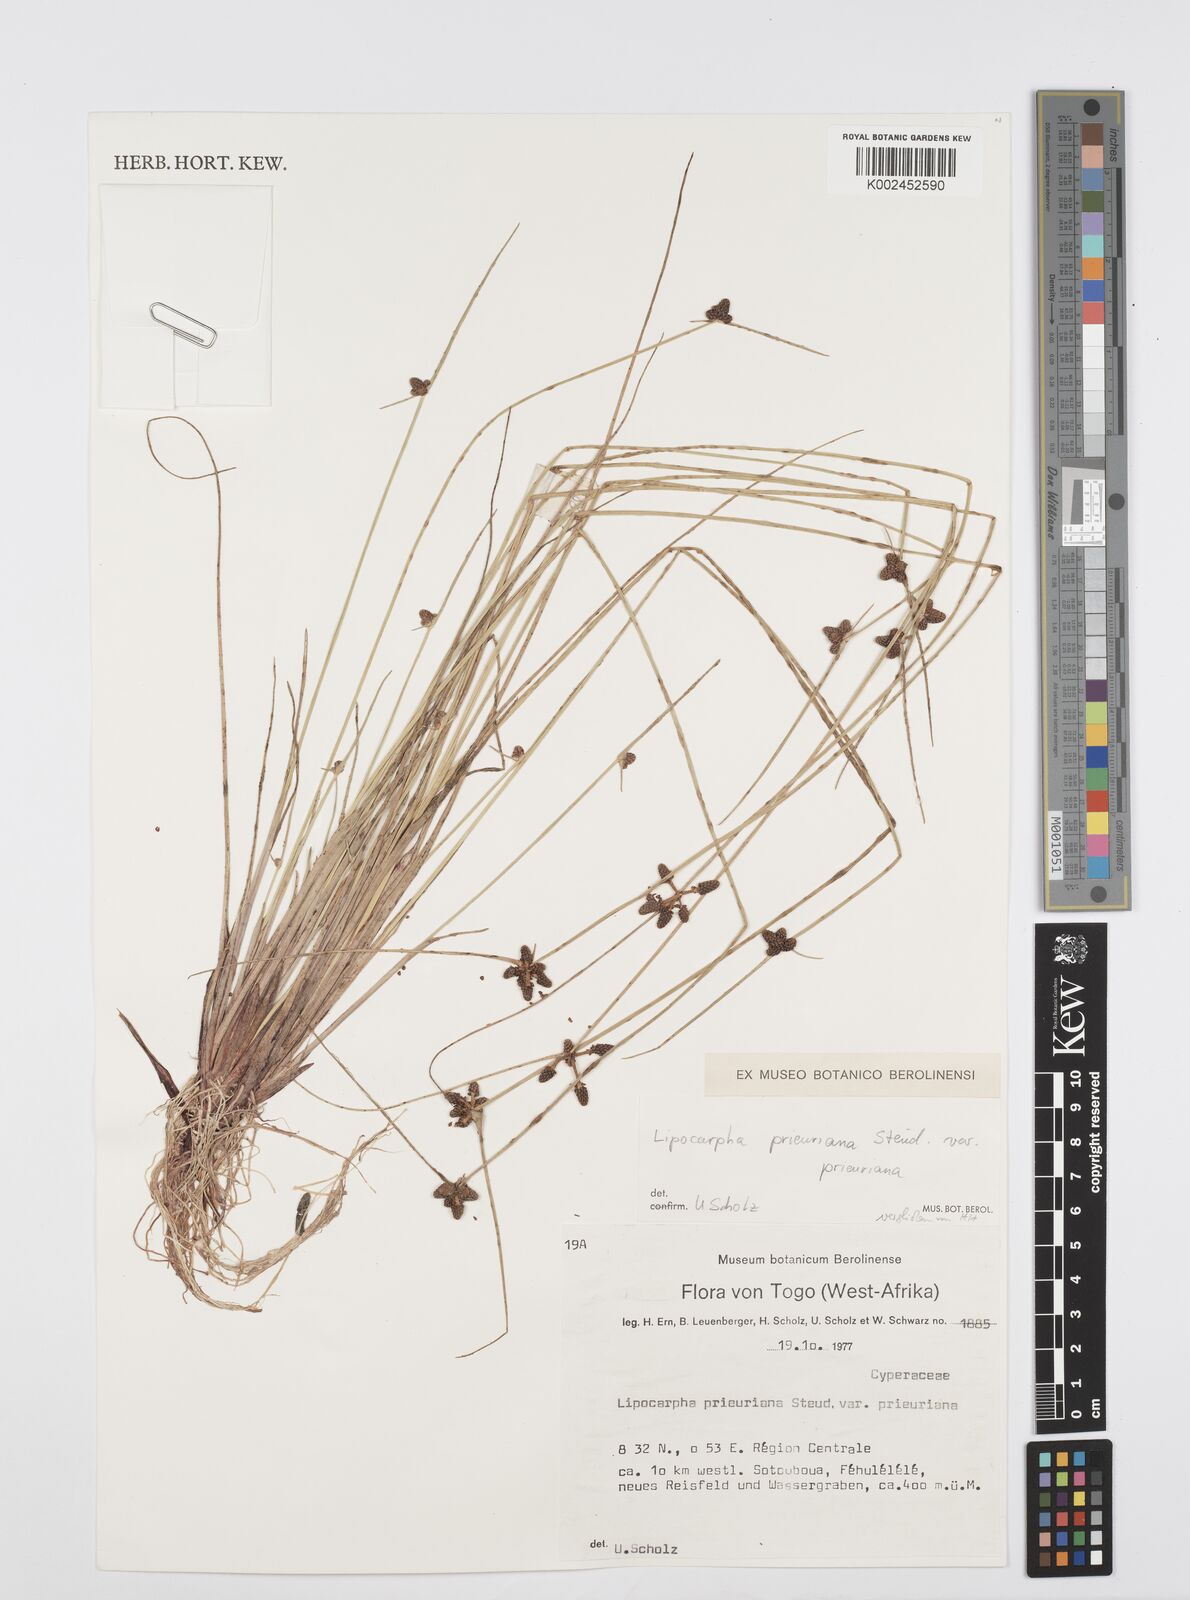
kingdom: Plantae
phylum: Tracheophyta
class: Liliopsida
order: Poales
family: Cyperaceae
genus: Cyperus
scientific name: Cyperus prieurianus
